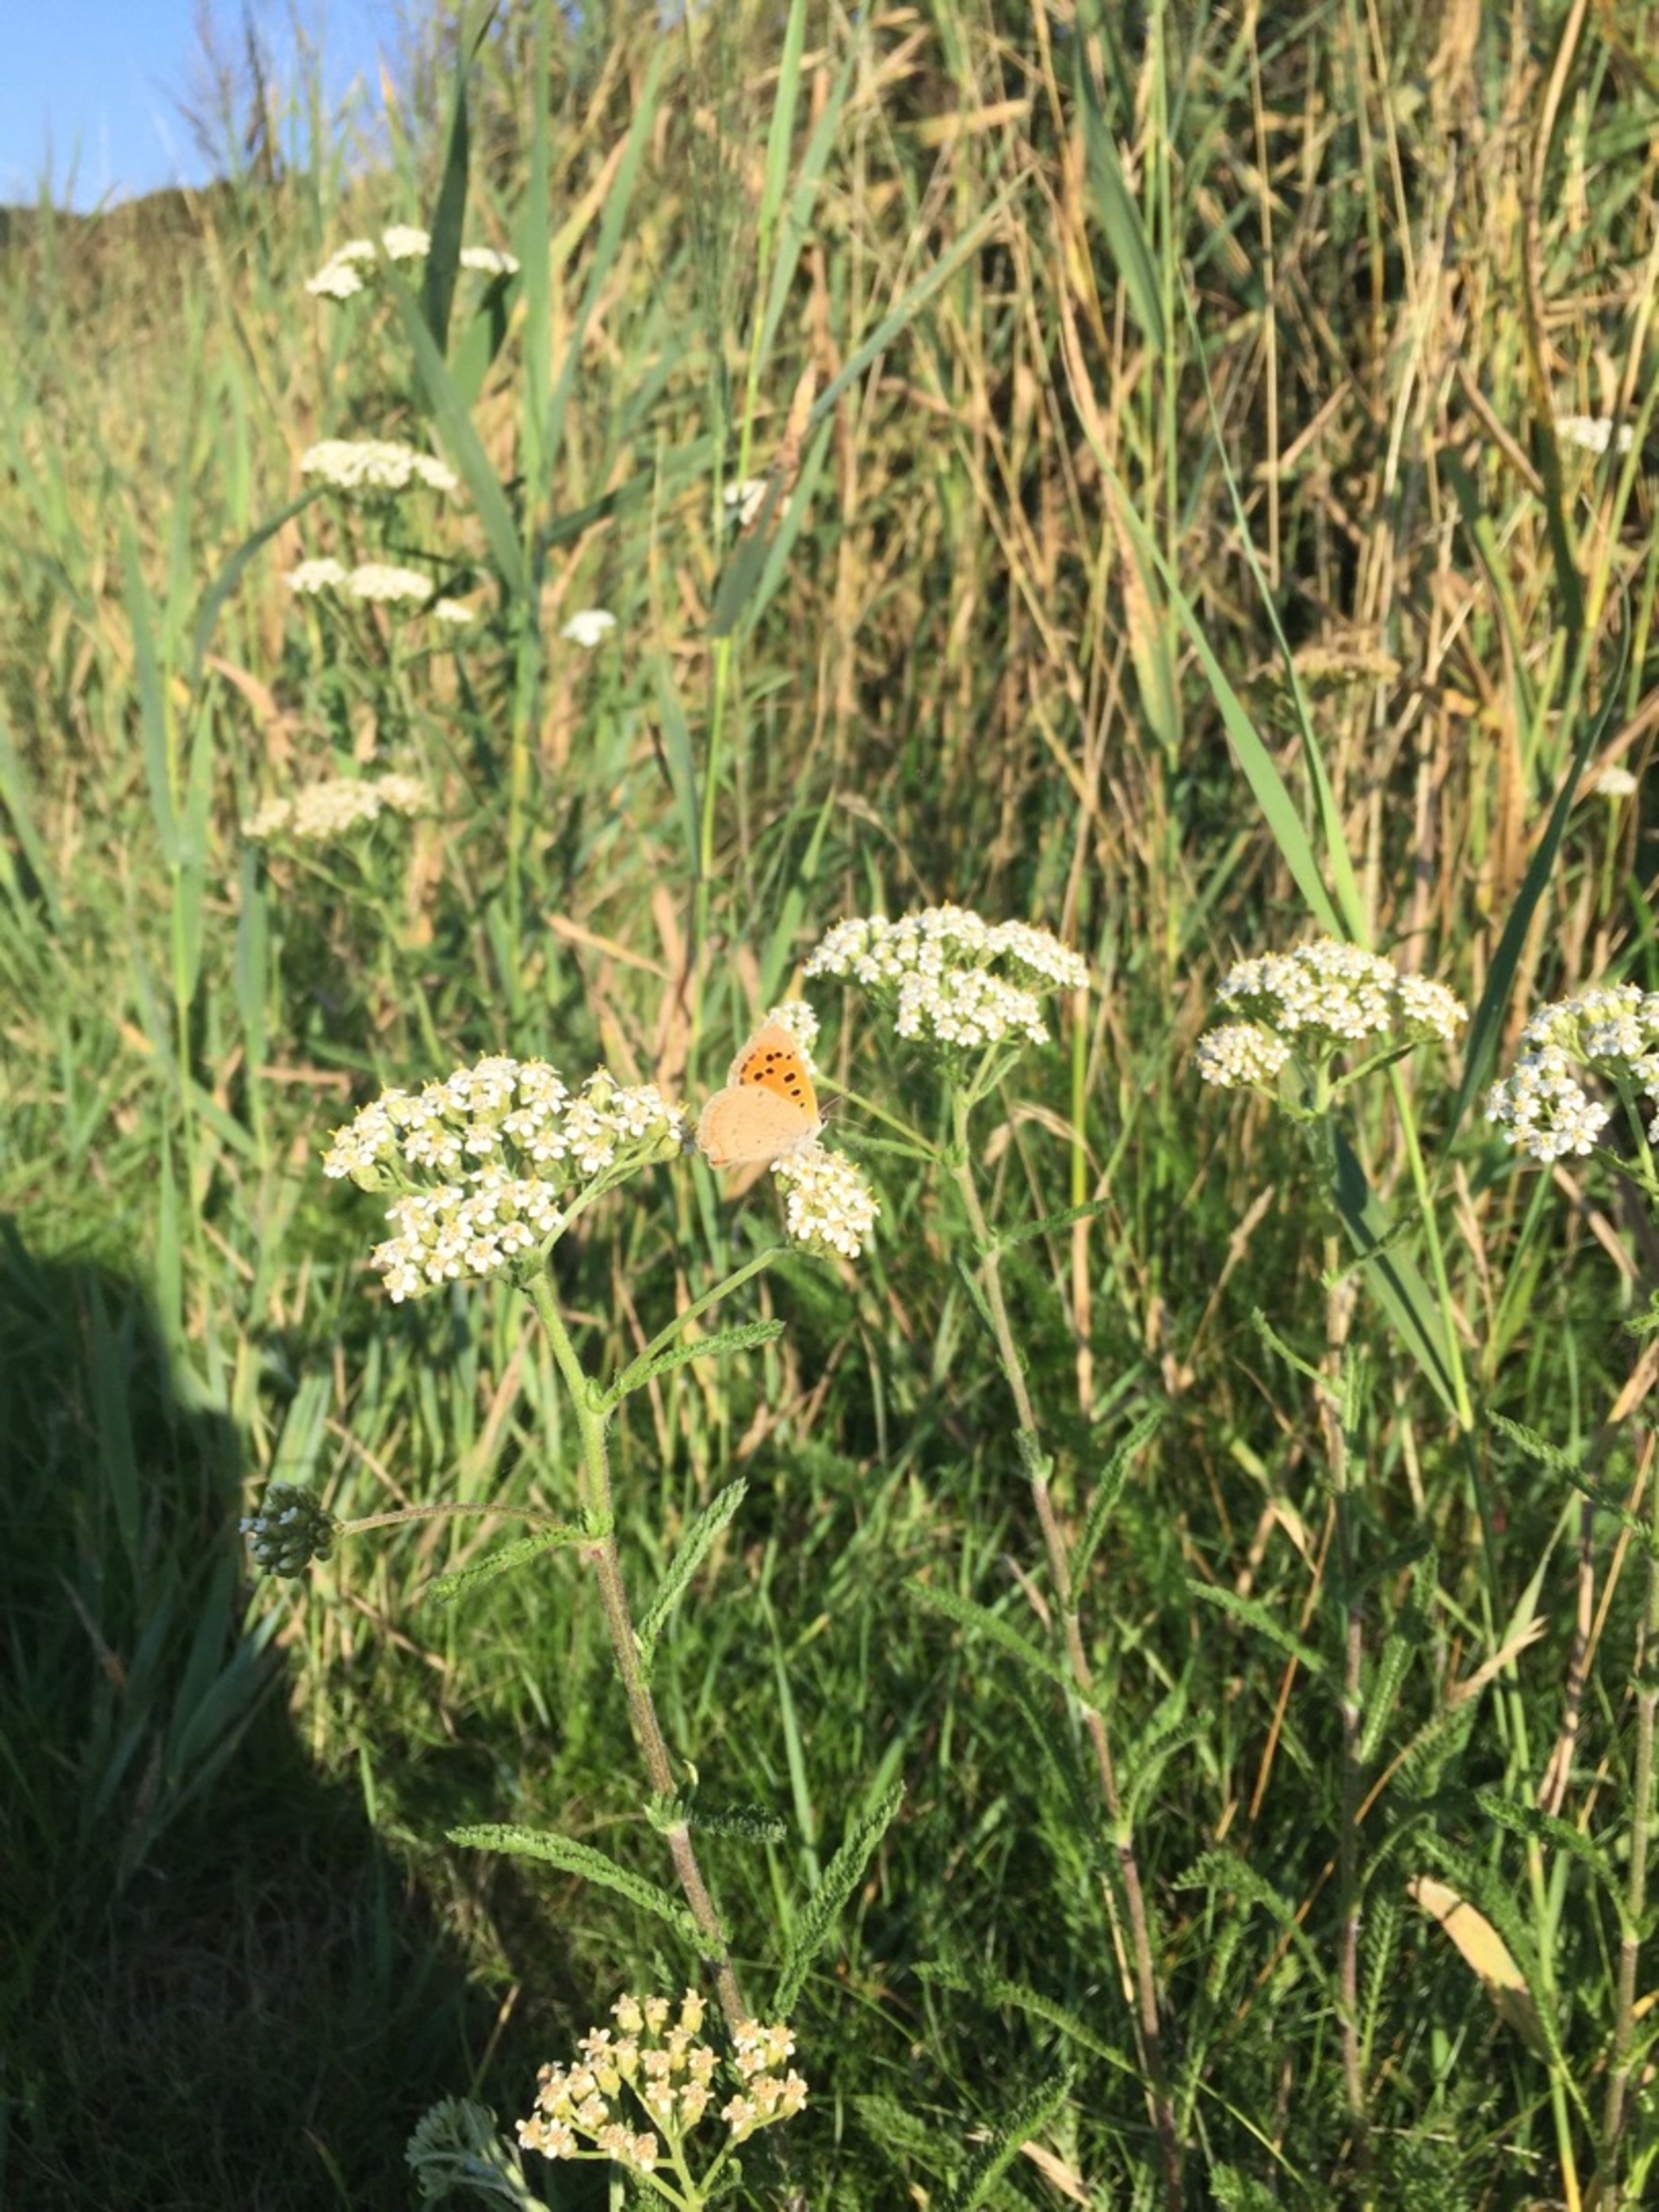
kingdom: Animalia
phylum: Arthropoda
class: Insecta
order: Lepidoptera
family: Lycaenidae
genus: Lycaena
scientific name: Lycaena phlaeas
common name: Lille ildfugl
